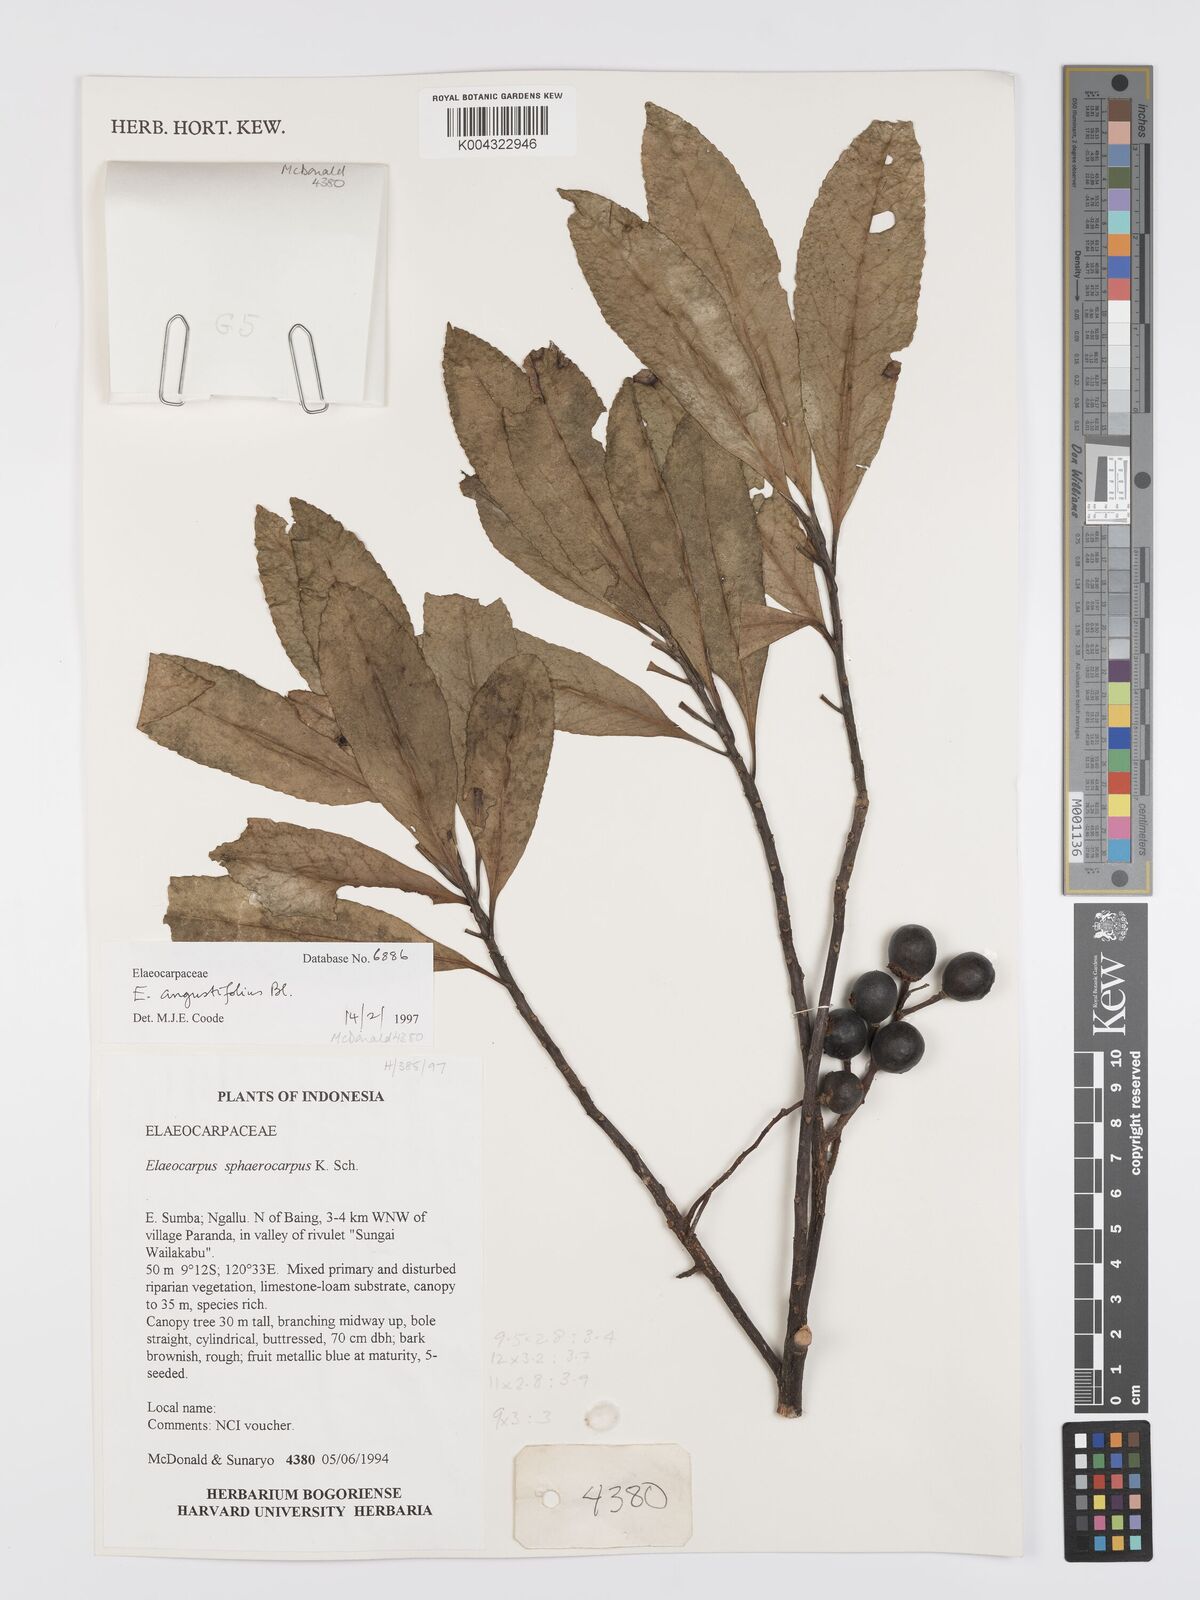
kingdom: Plantae
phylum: Tracheophyta
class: Magnoliopsida
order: Oxalidales
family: Elaeocarpaceae
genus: Elaeocarpus
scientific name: Elaeocarpus
